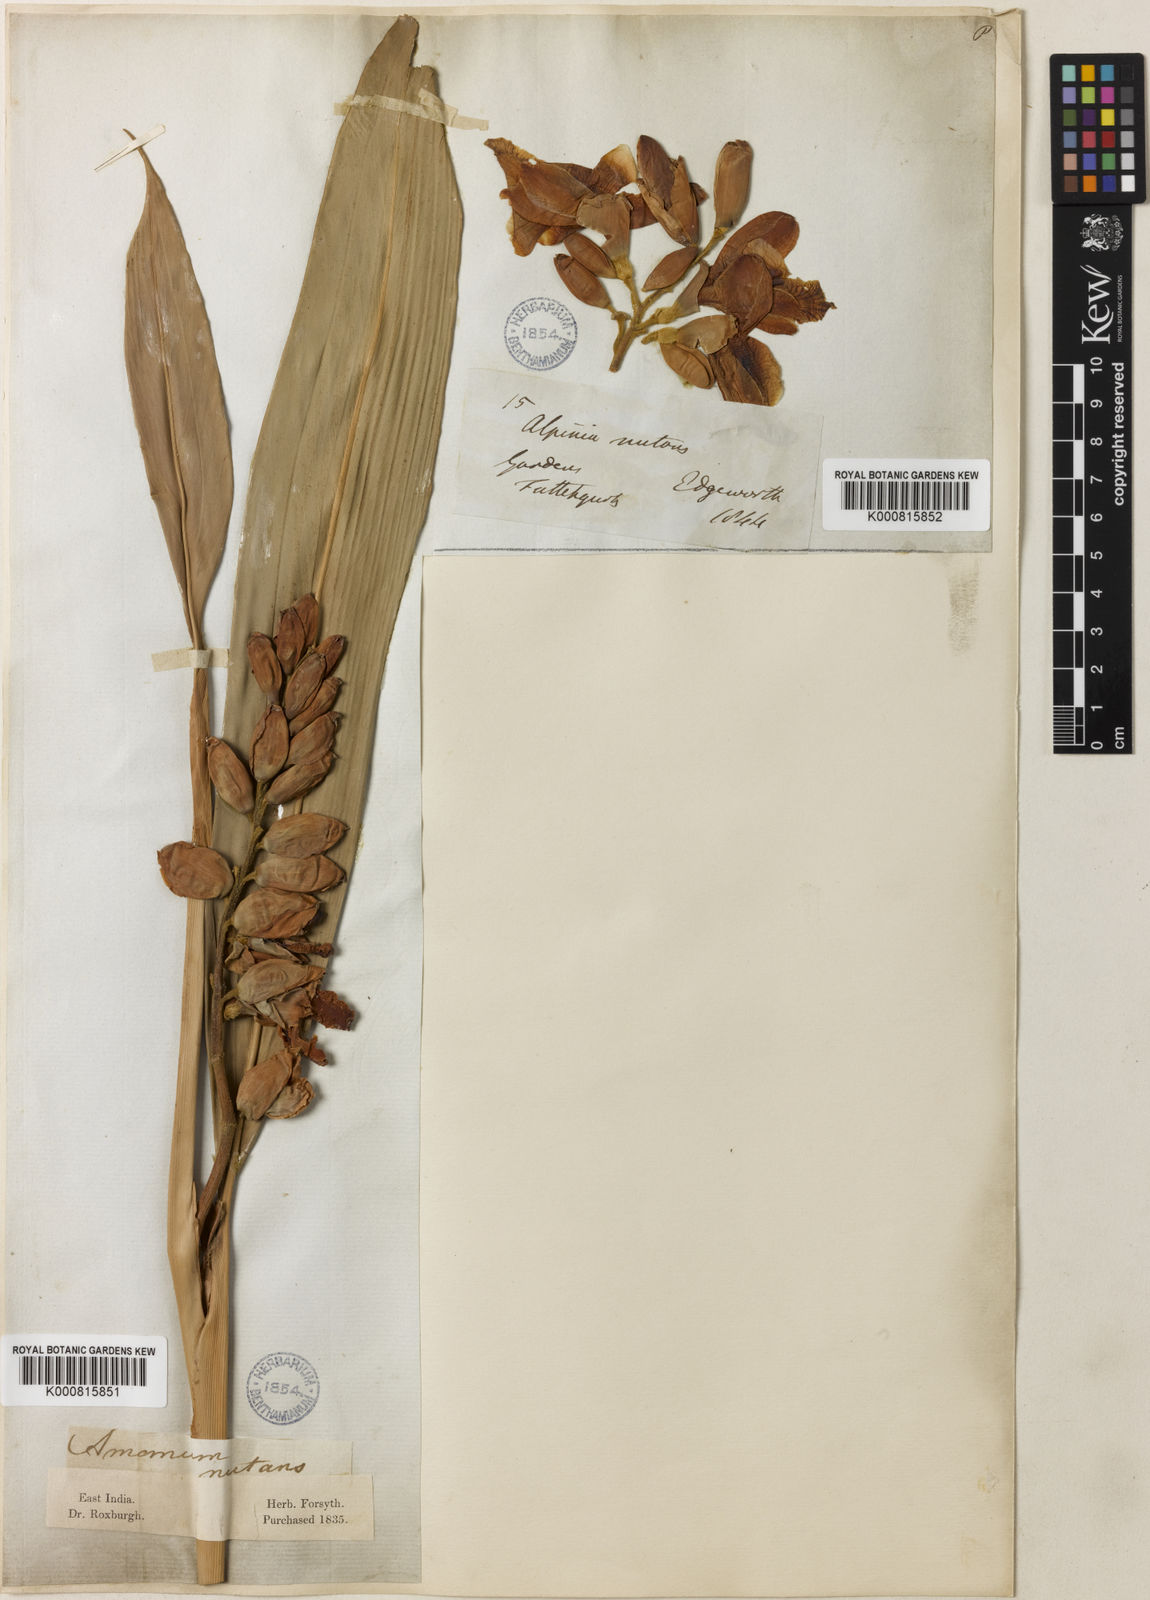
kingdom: Plantae
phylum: Tracheophyta
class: Liliopsida
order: Zingiberales
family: Zingiberaceae
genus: Alpinia
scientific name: Alpinia zerumbet
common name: Shellplant
